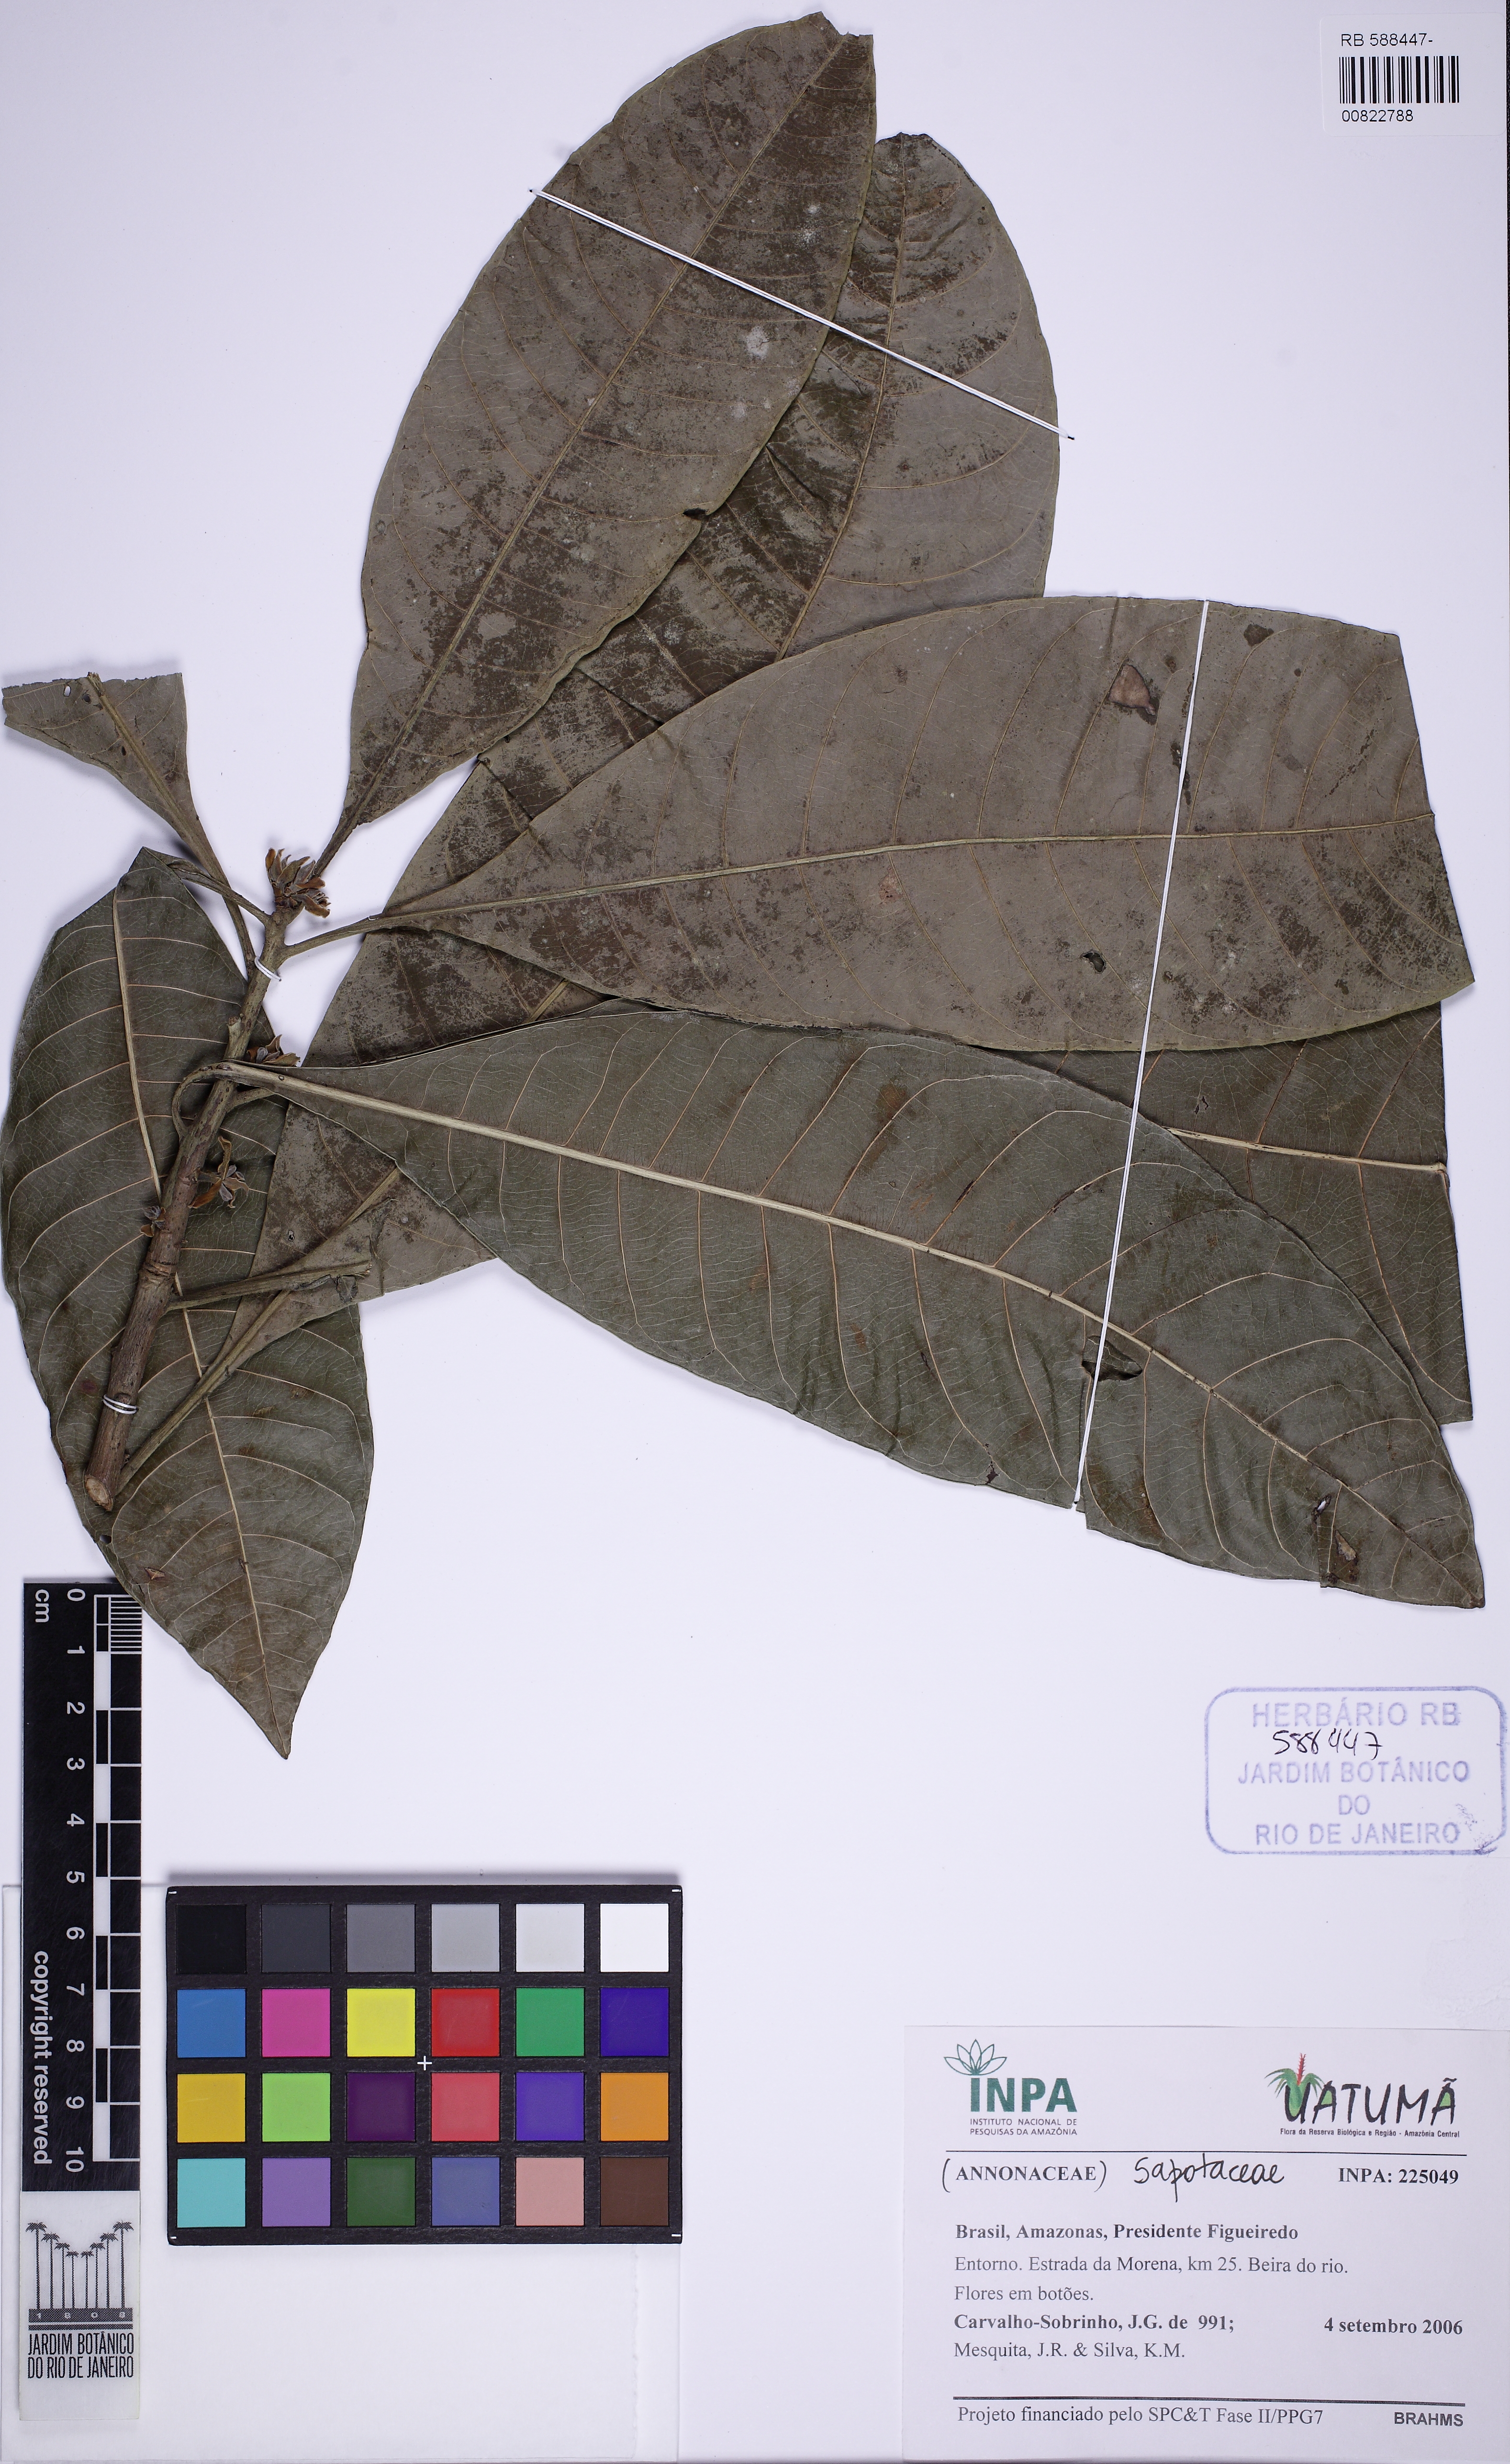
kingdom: Plantae
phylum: Tracheophyta
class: Magnoliopsida
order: Malpighiales
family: Euphorbiaceae
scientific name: Euphorbiaceae
